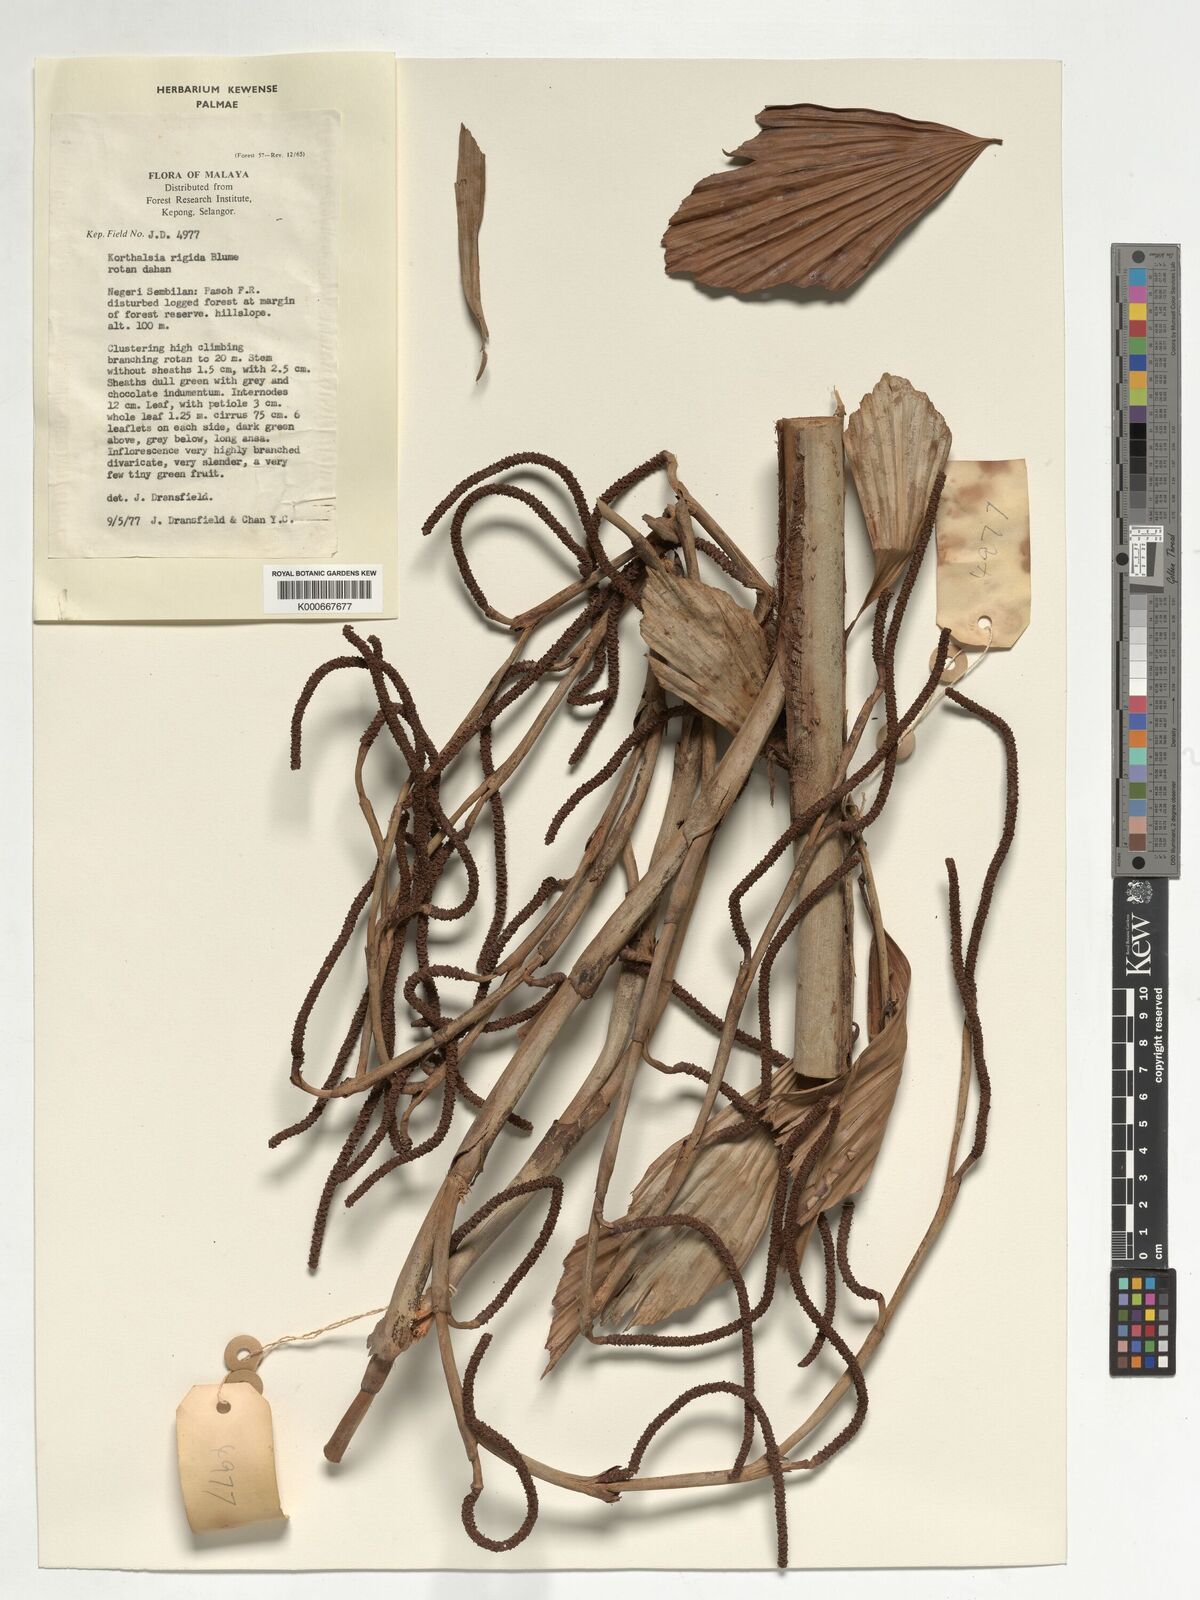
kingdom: Plantae
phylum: Tracheophyta
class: Liliopsida
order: Arecales
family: Arecaceae
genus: Korthalsia
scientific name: Korthalsia rigida
